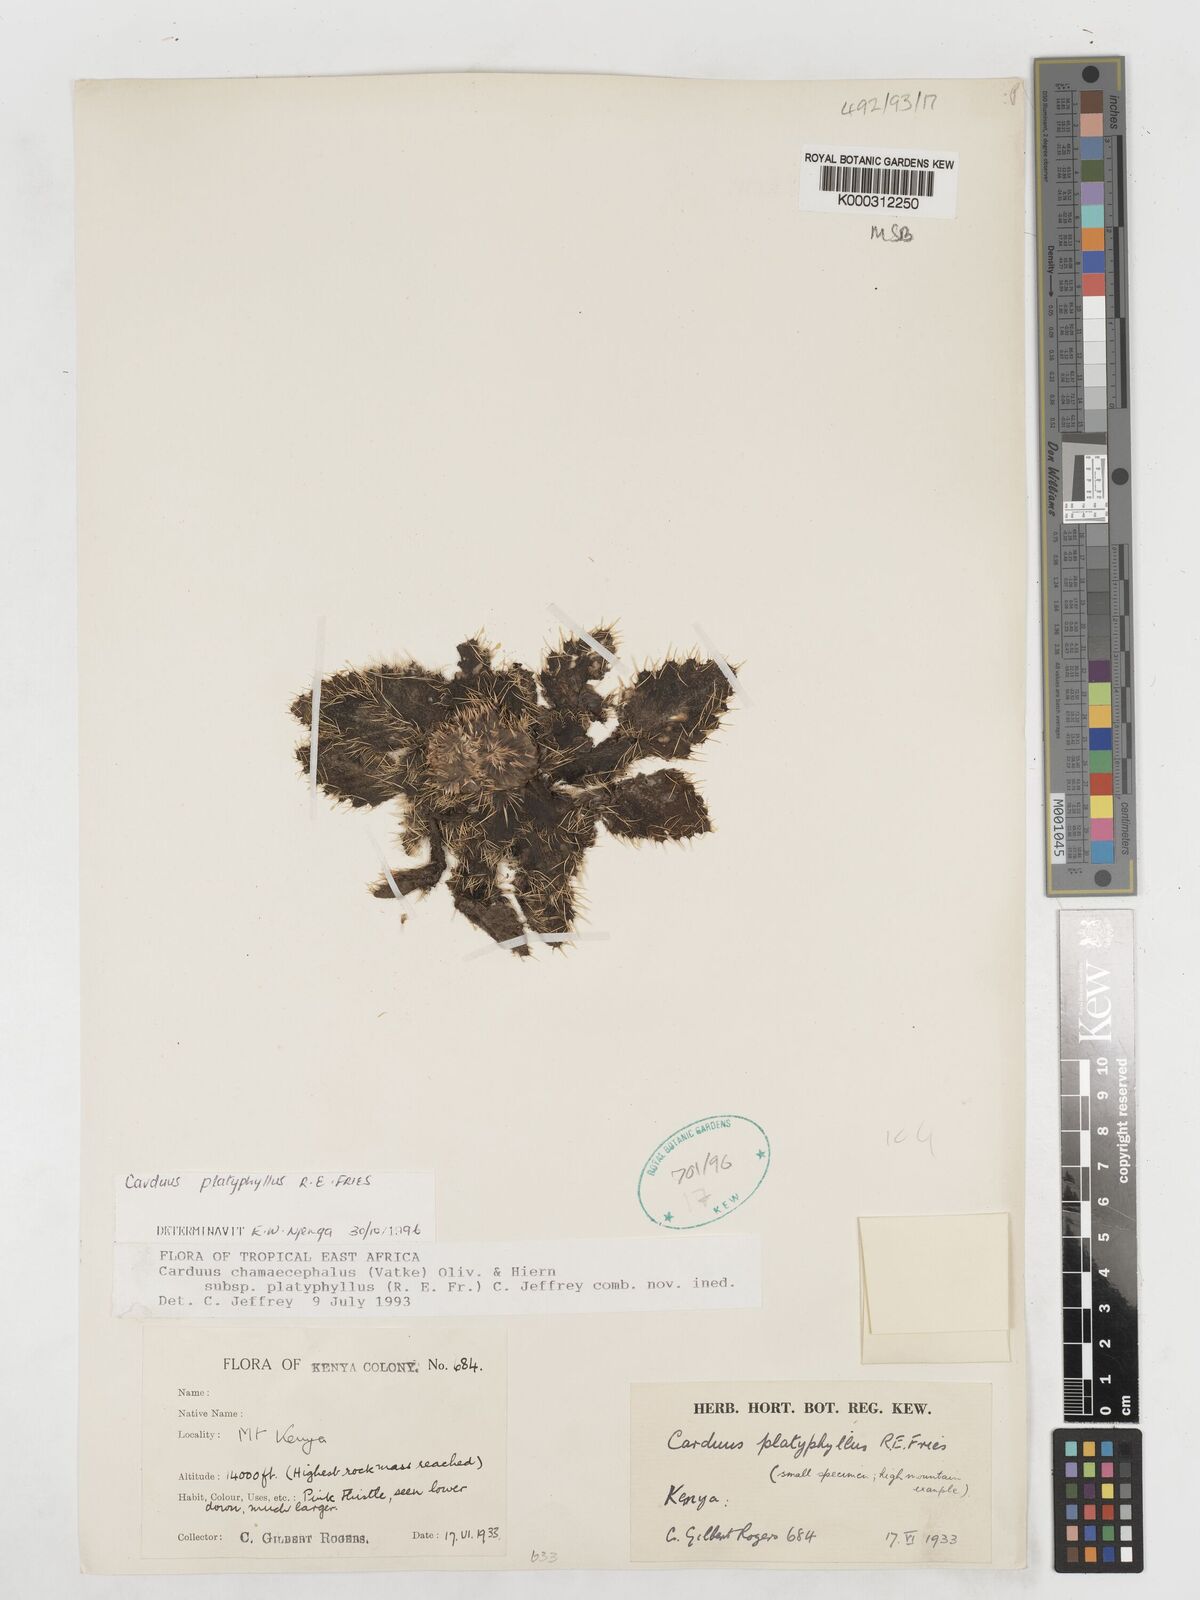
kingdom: Plantae
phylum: Tracheophyta
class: Magnoliopsida
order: Asterales
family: Asteraceae
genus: Carduus
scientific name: Carduus schimperi
